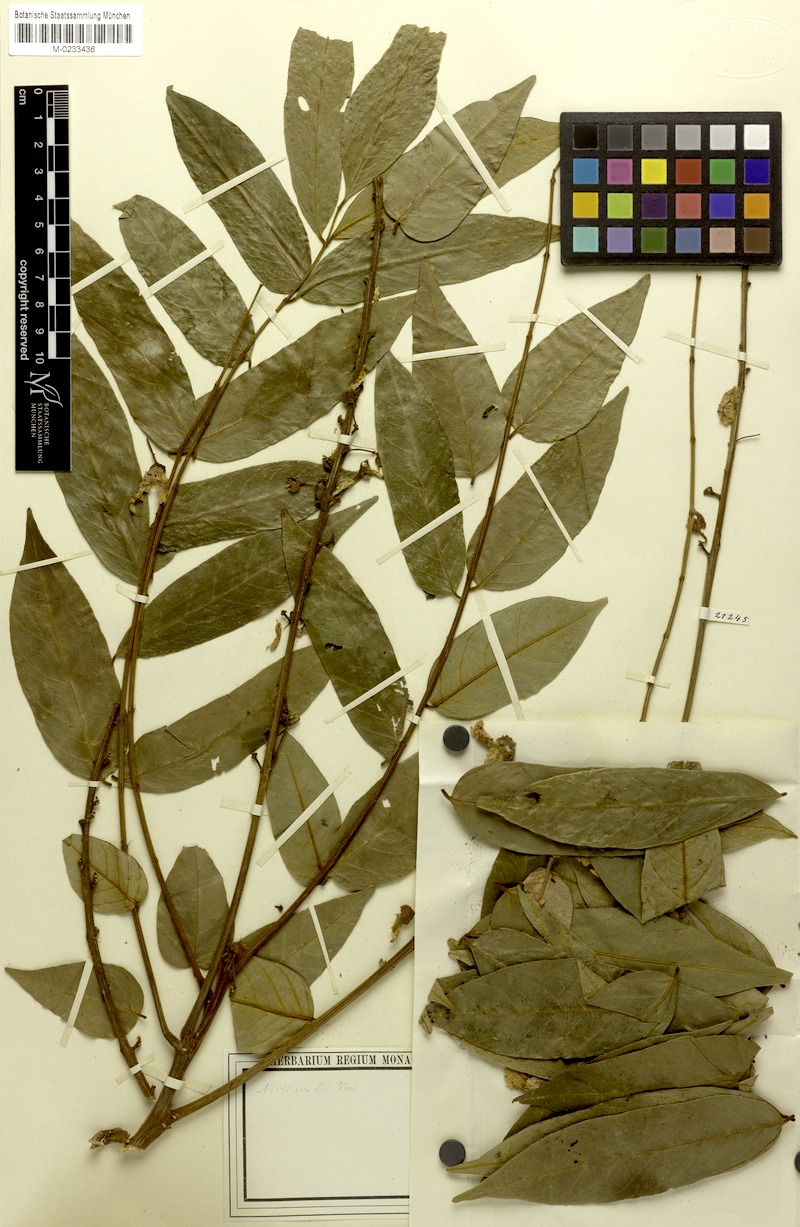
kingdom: Plantae
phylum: Tracheophyta
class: Magnoliopsida
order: Fabales
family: Fabaceae
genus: Millettia
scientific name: Millettia oblata
